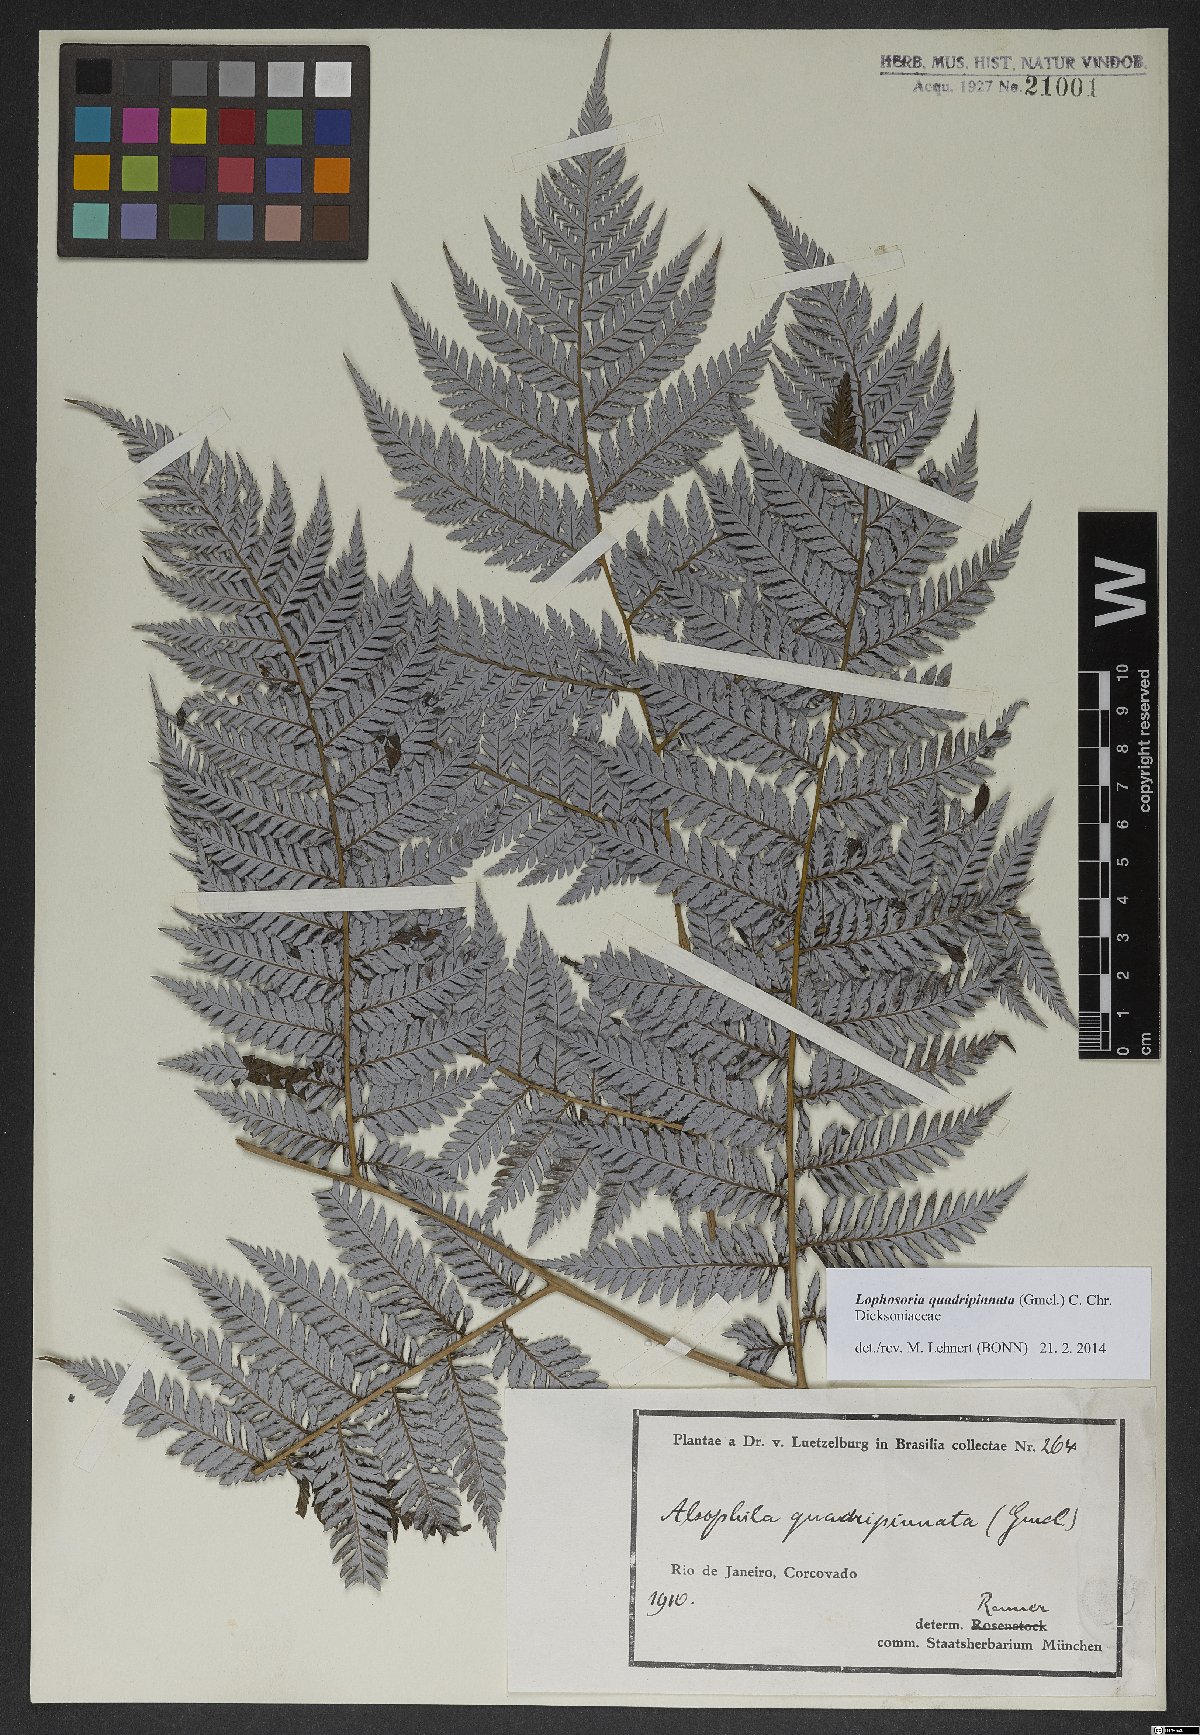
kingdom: Plantae
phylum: Tracheophyta
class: Polypodiopsida
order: Cyatheales
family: Dicksoniaceae
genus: Lophosoria
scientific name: Lophosoria quadripinnata
